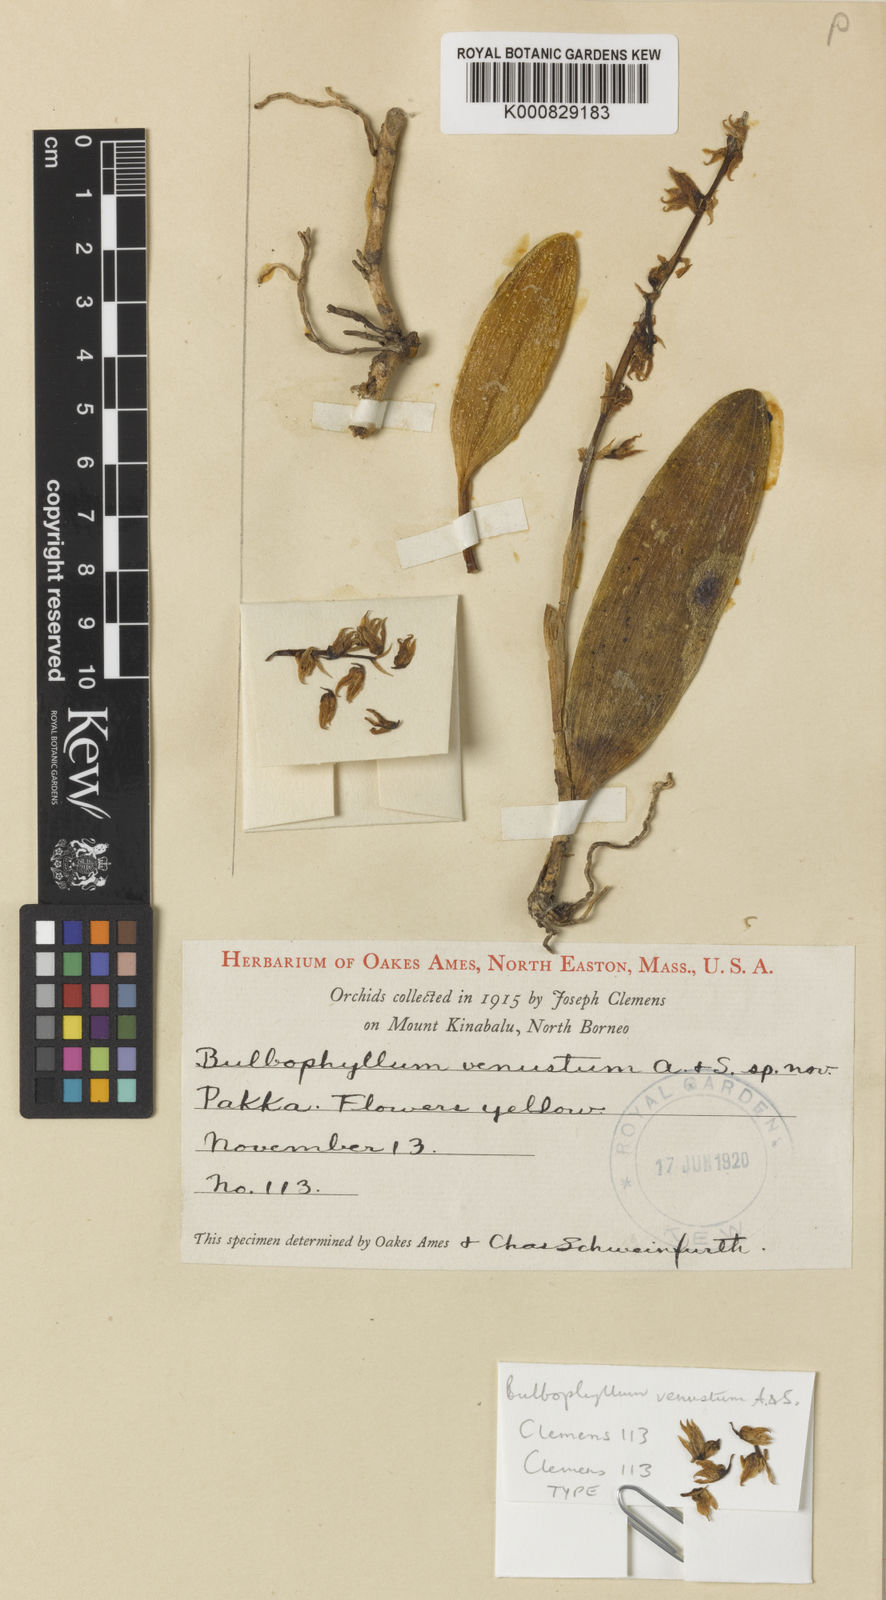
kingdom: Plantae
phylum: Tracheophyta
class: Liliopsida
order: Asparagales
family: Orchidaceae
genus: Bulbophyllum
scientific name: Bulbophyllum
